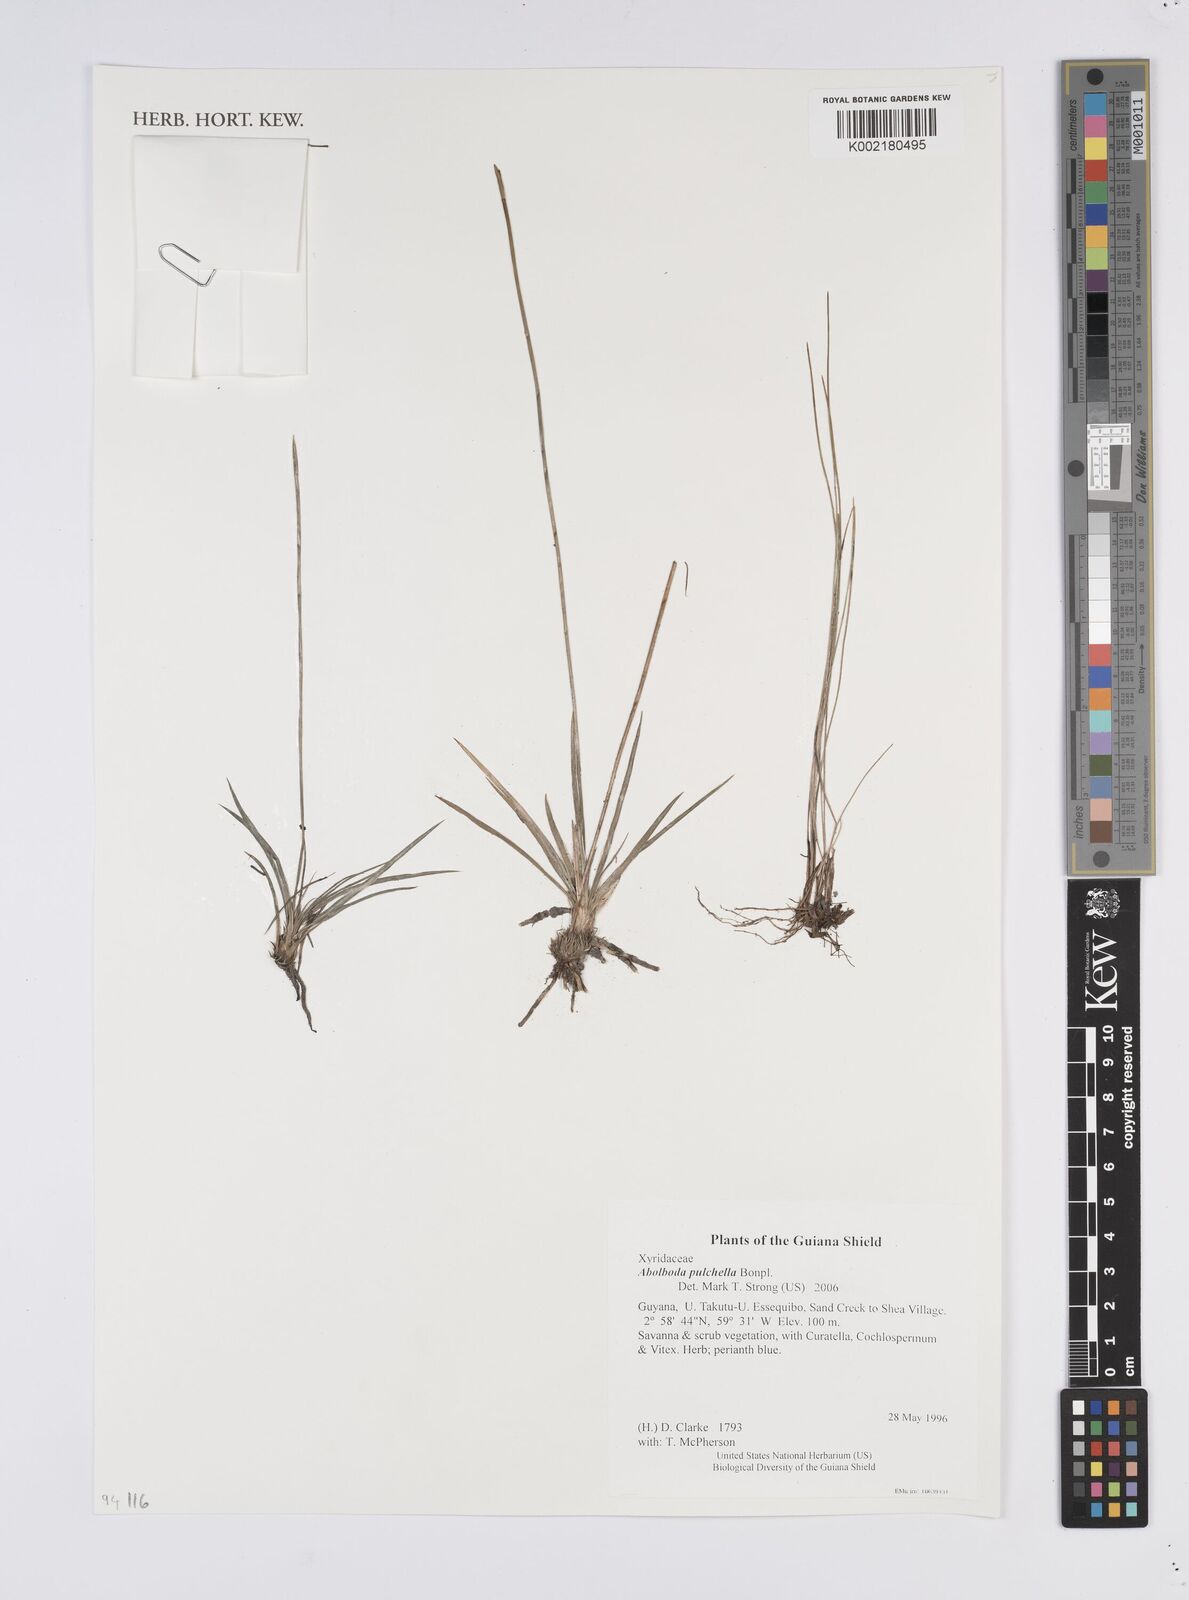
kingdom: Plantae
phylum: Tracheophyta
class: Liliopsida
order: Poales
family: Xyridaceae
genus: Abolboda
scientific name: Abolboda pulchella
